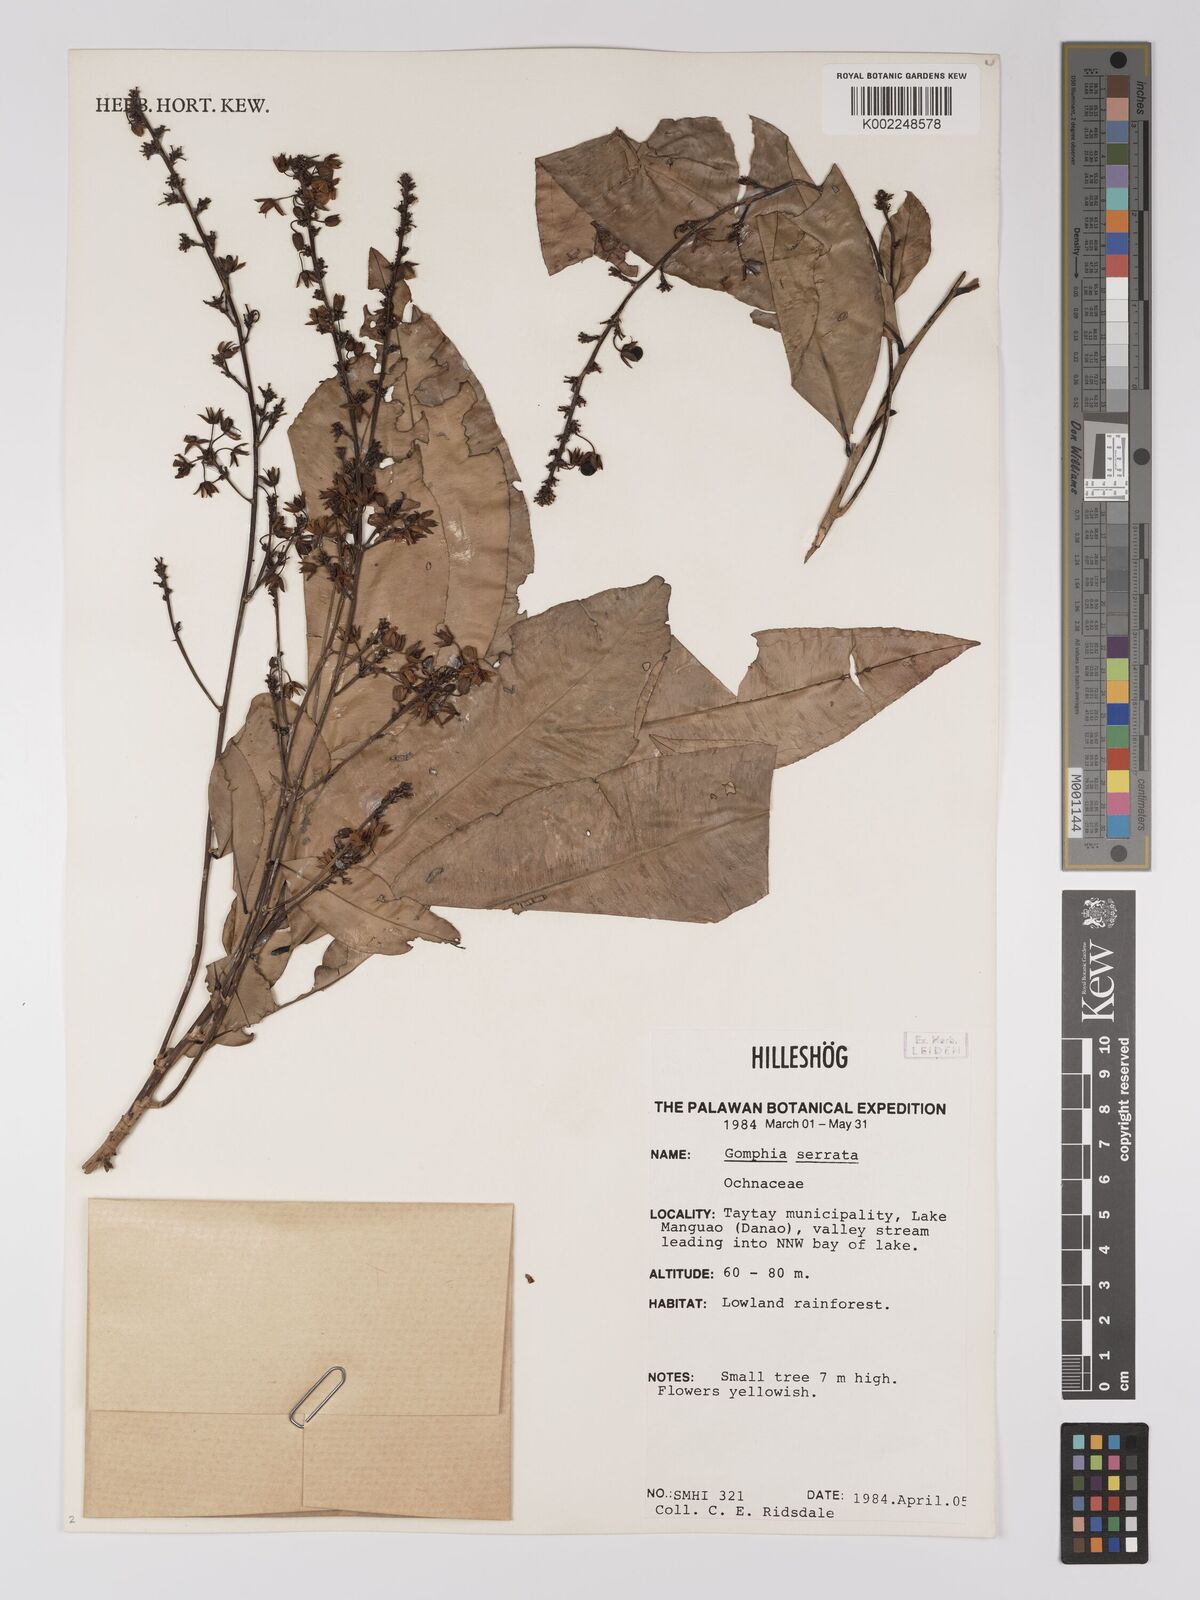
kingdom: Plantae
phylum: Tracheophyta
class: Magnoliopsida
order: Malpighiales
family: Ochnaceae
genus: Gomphia
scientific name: Gomphia serrata
